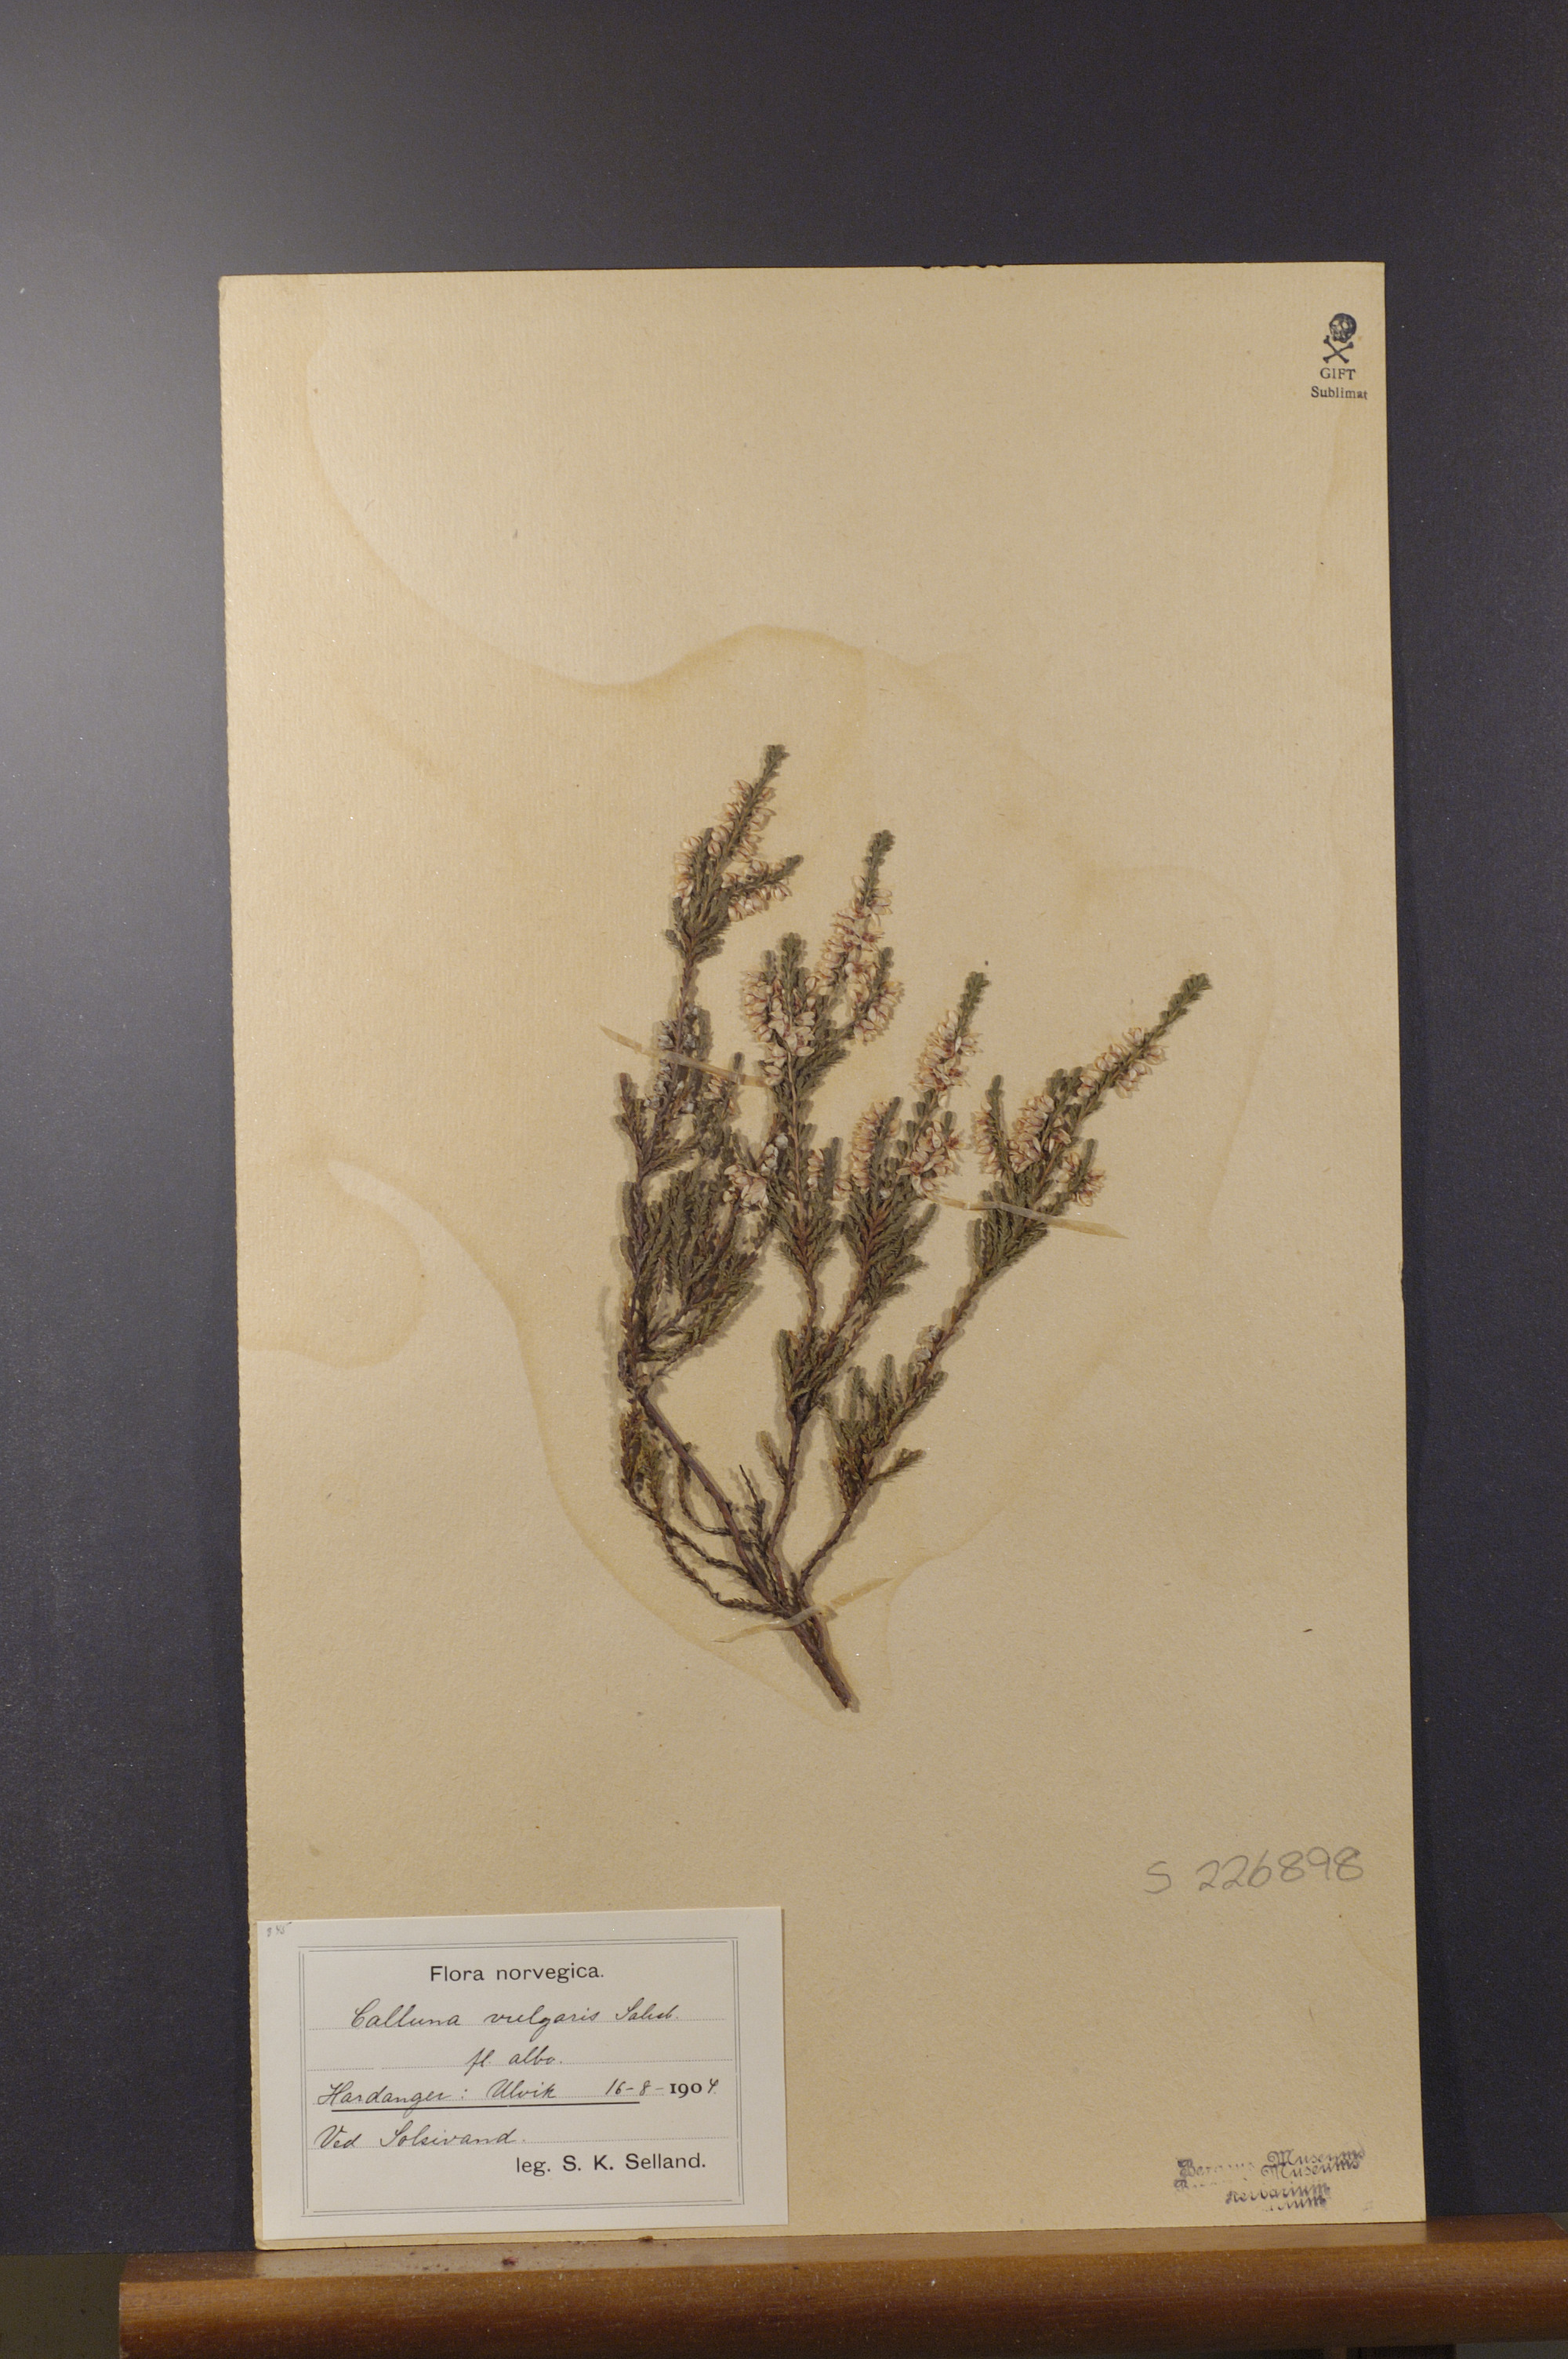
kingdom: Plantae
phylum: Tracheophyta
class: Magnoliopsida
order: Ericales
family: Ericaceae
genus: Calluna
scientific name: Calluna vulgaris
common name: Heather
